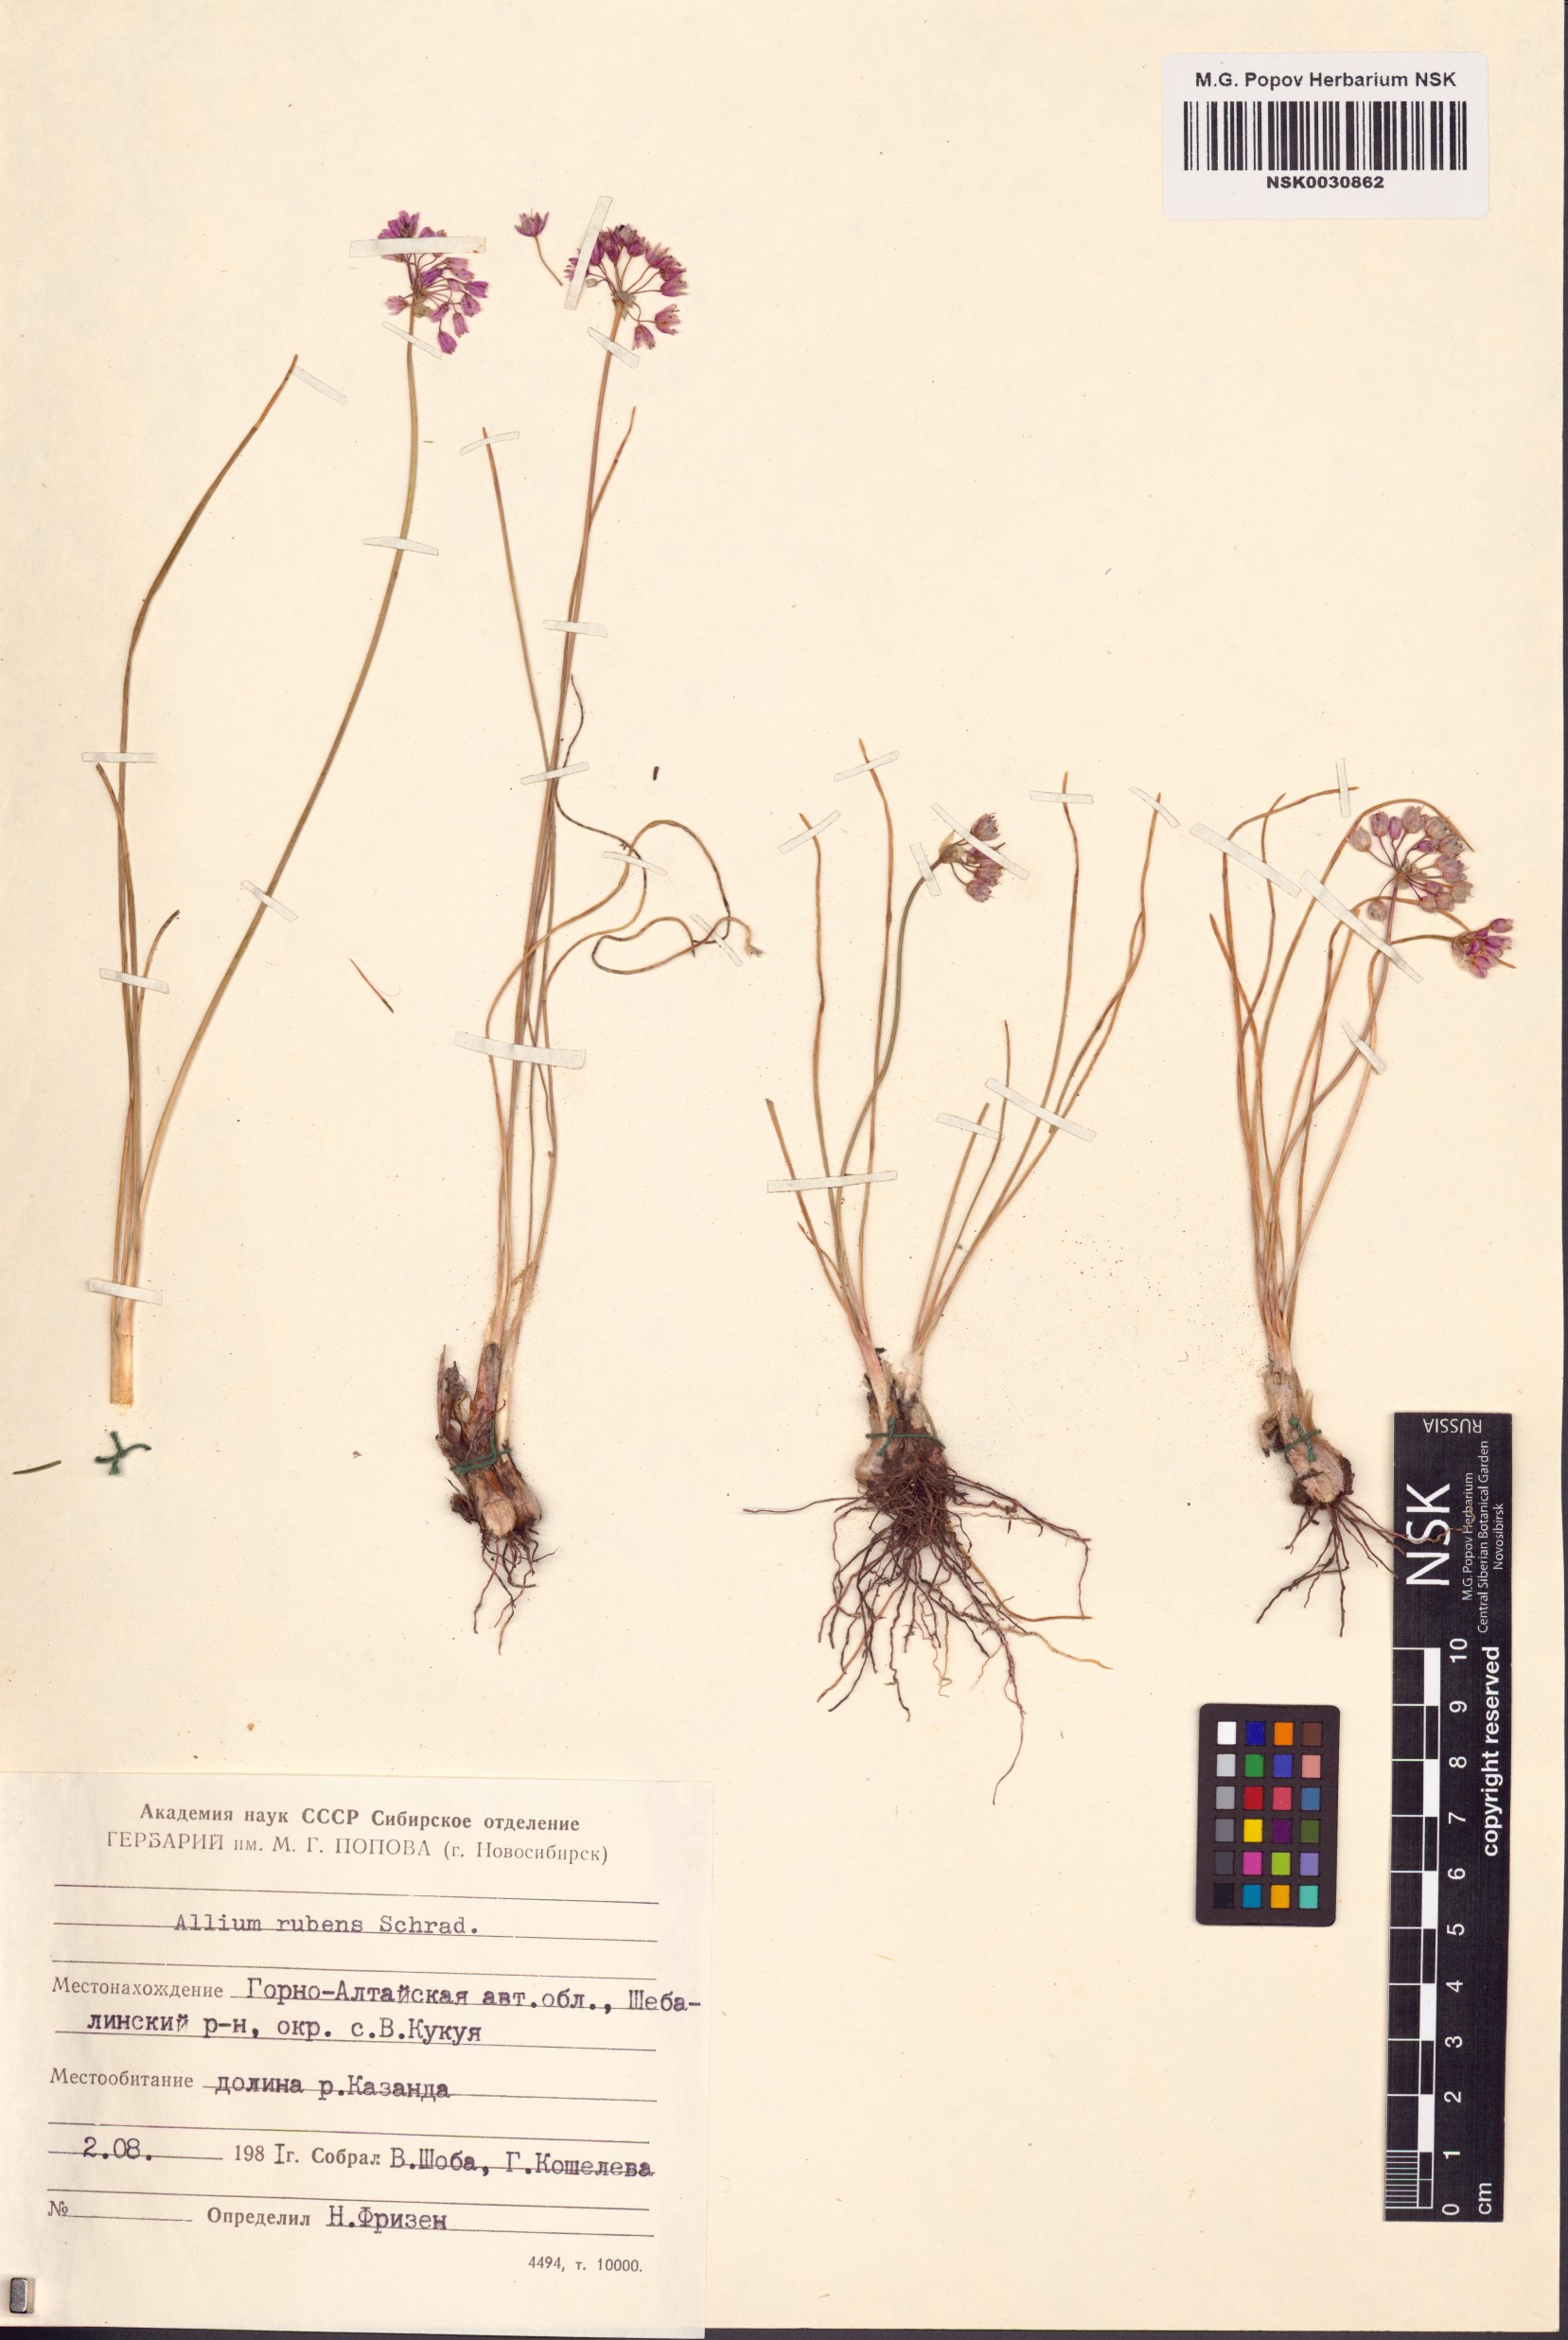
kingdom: Plantae
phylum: Tracheophyta
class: Liliopsida
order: Asparagales
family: Amaryllidaceae
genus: Allium
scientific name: Allium rubens
